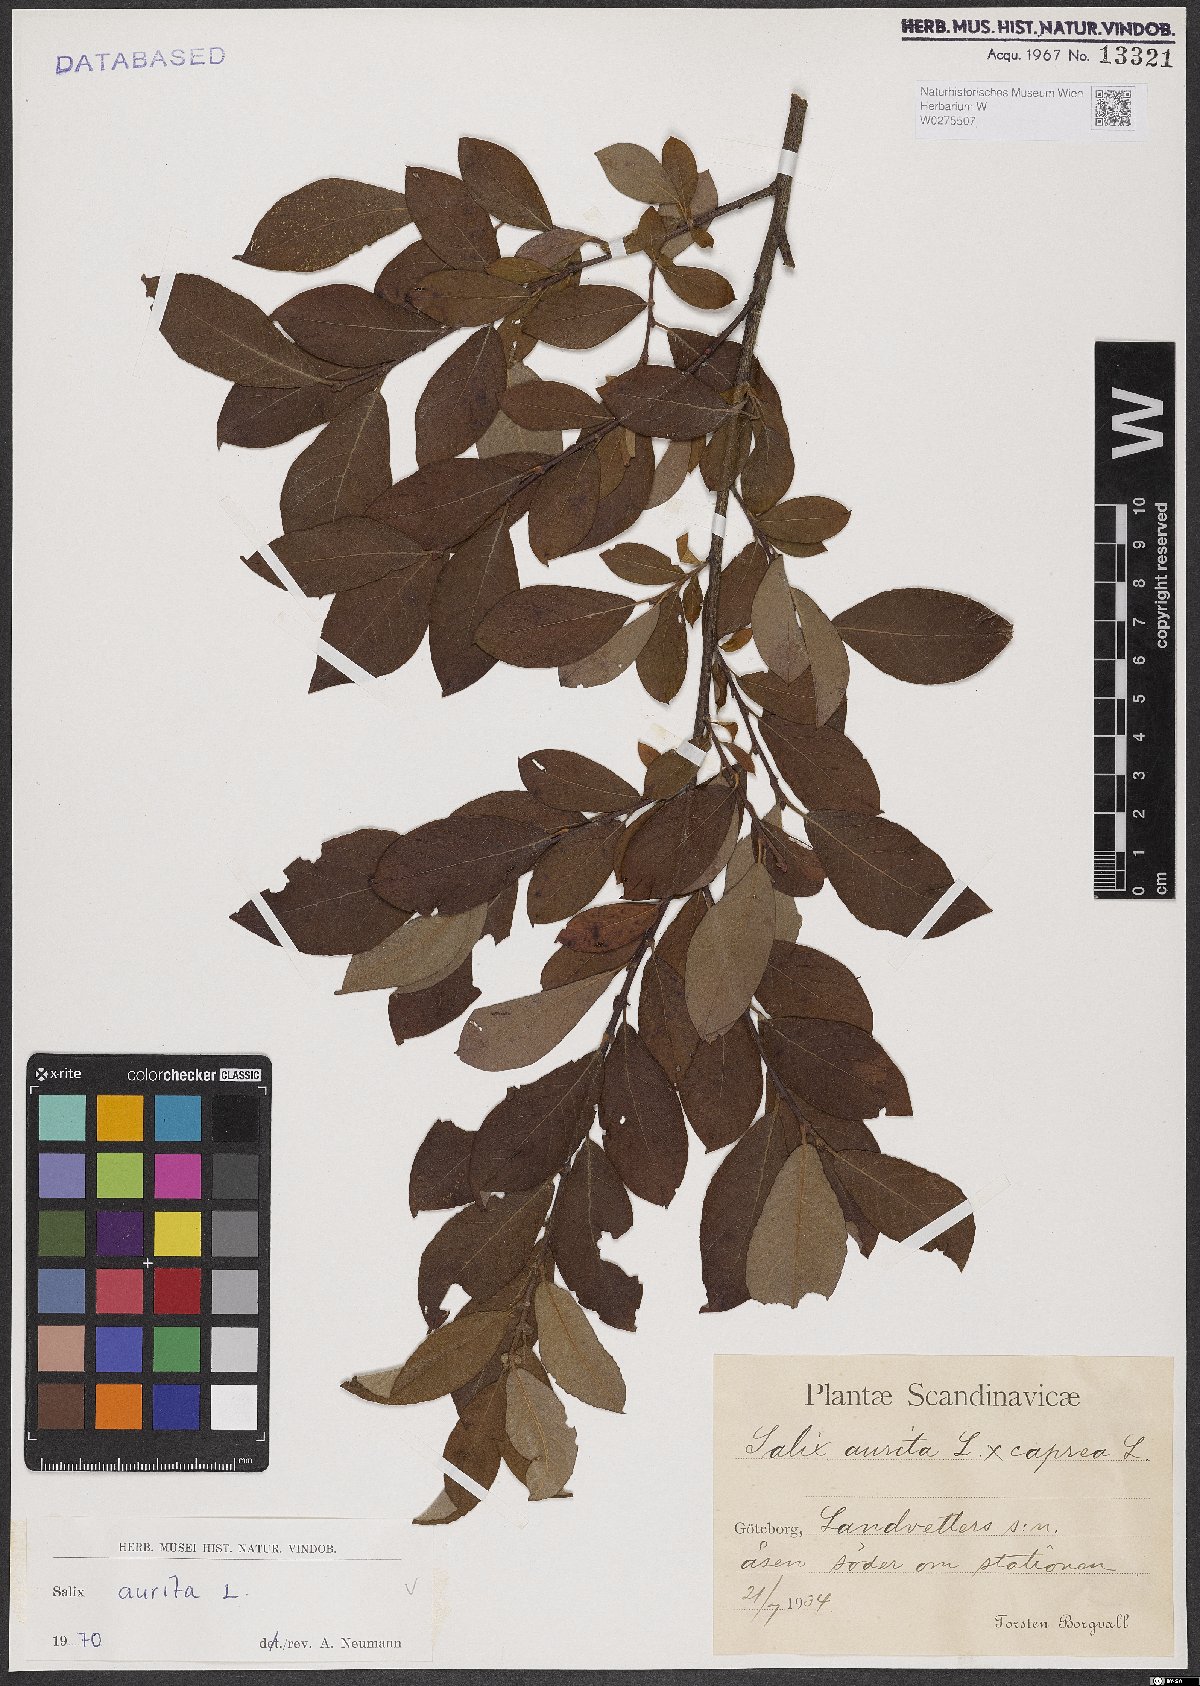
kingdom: Plantae
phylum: Tracheophyta
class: Magnoliopsida
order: Malpighiales
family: Salicaceae
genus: Salix
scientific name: Salix aurita
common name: Eared willow
